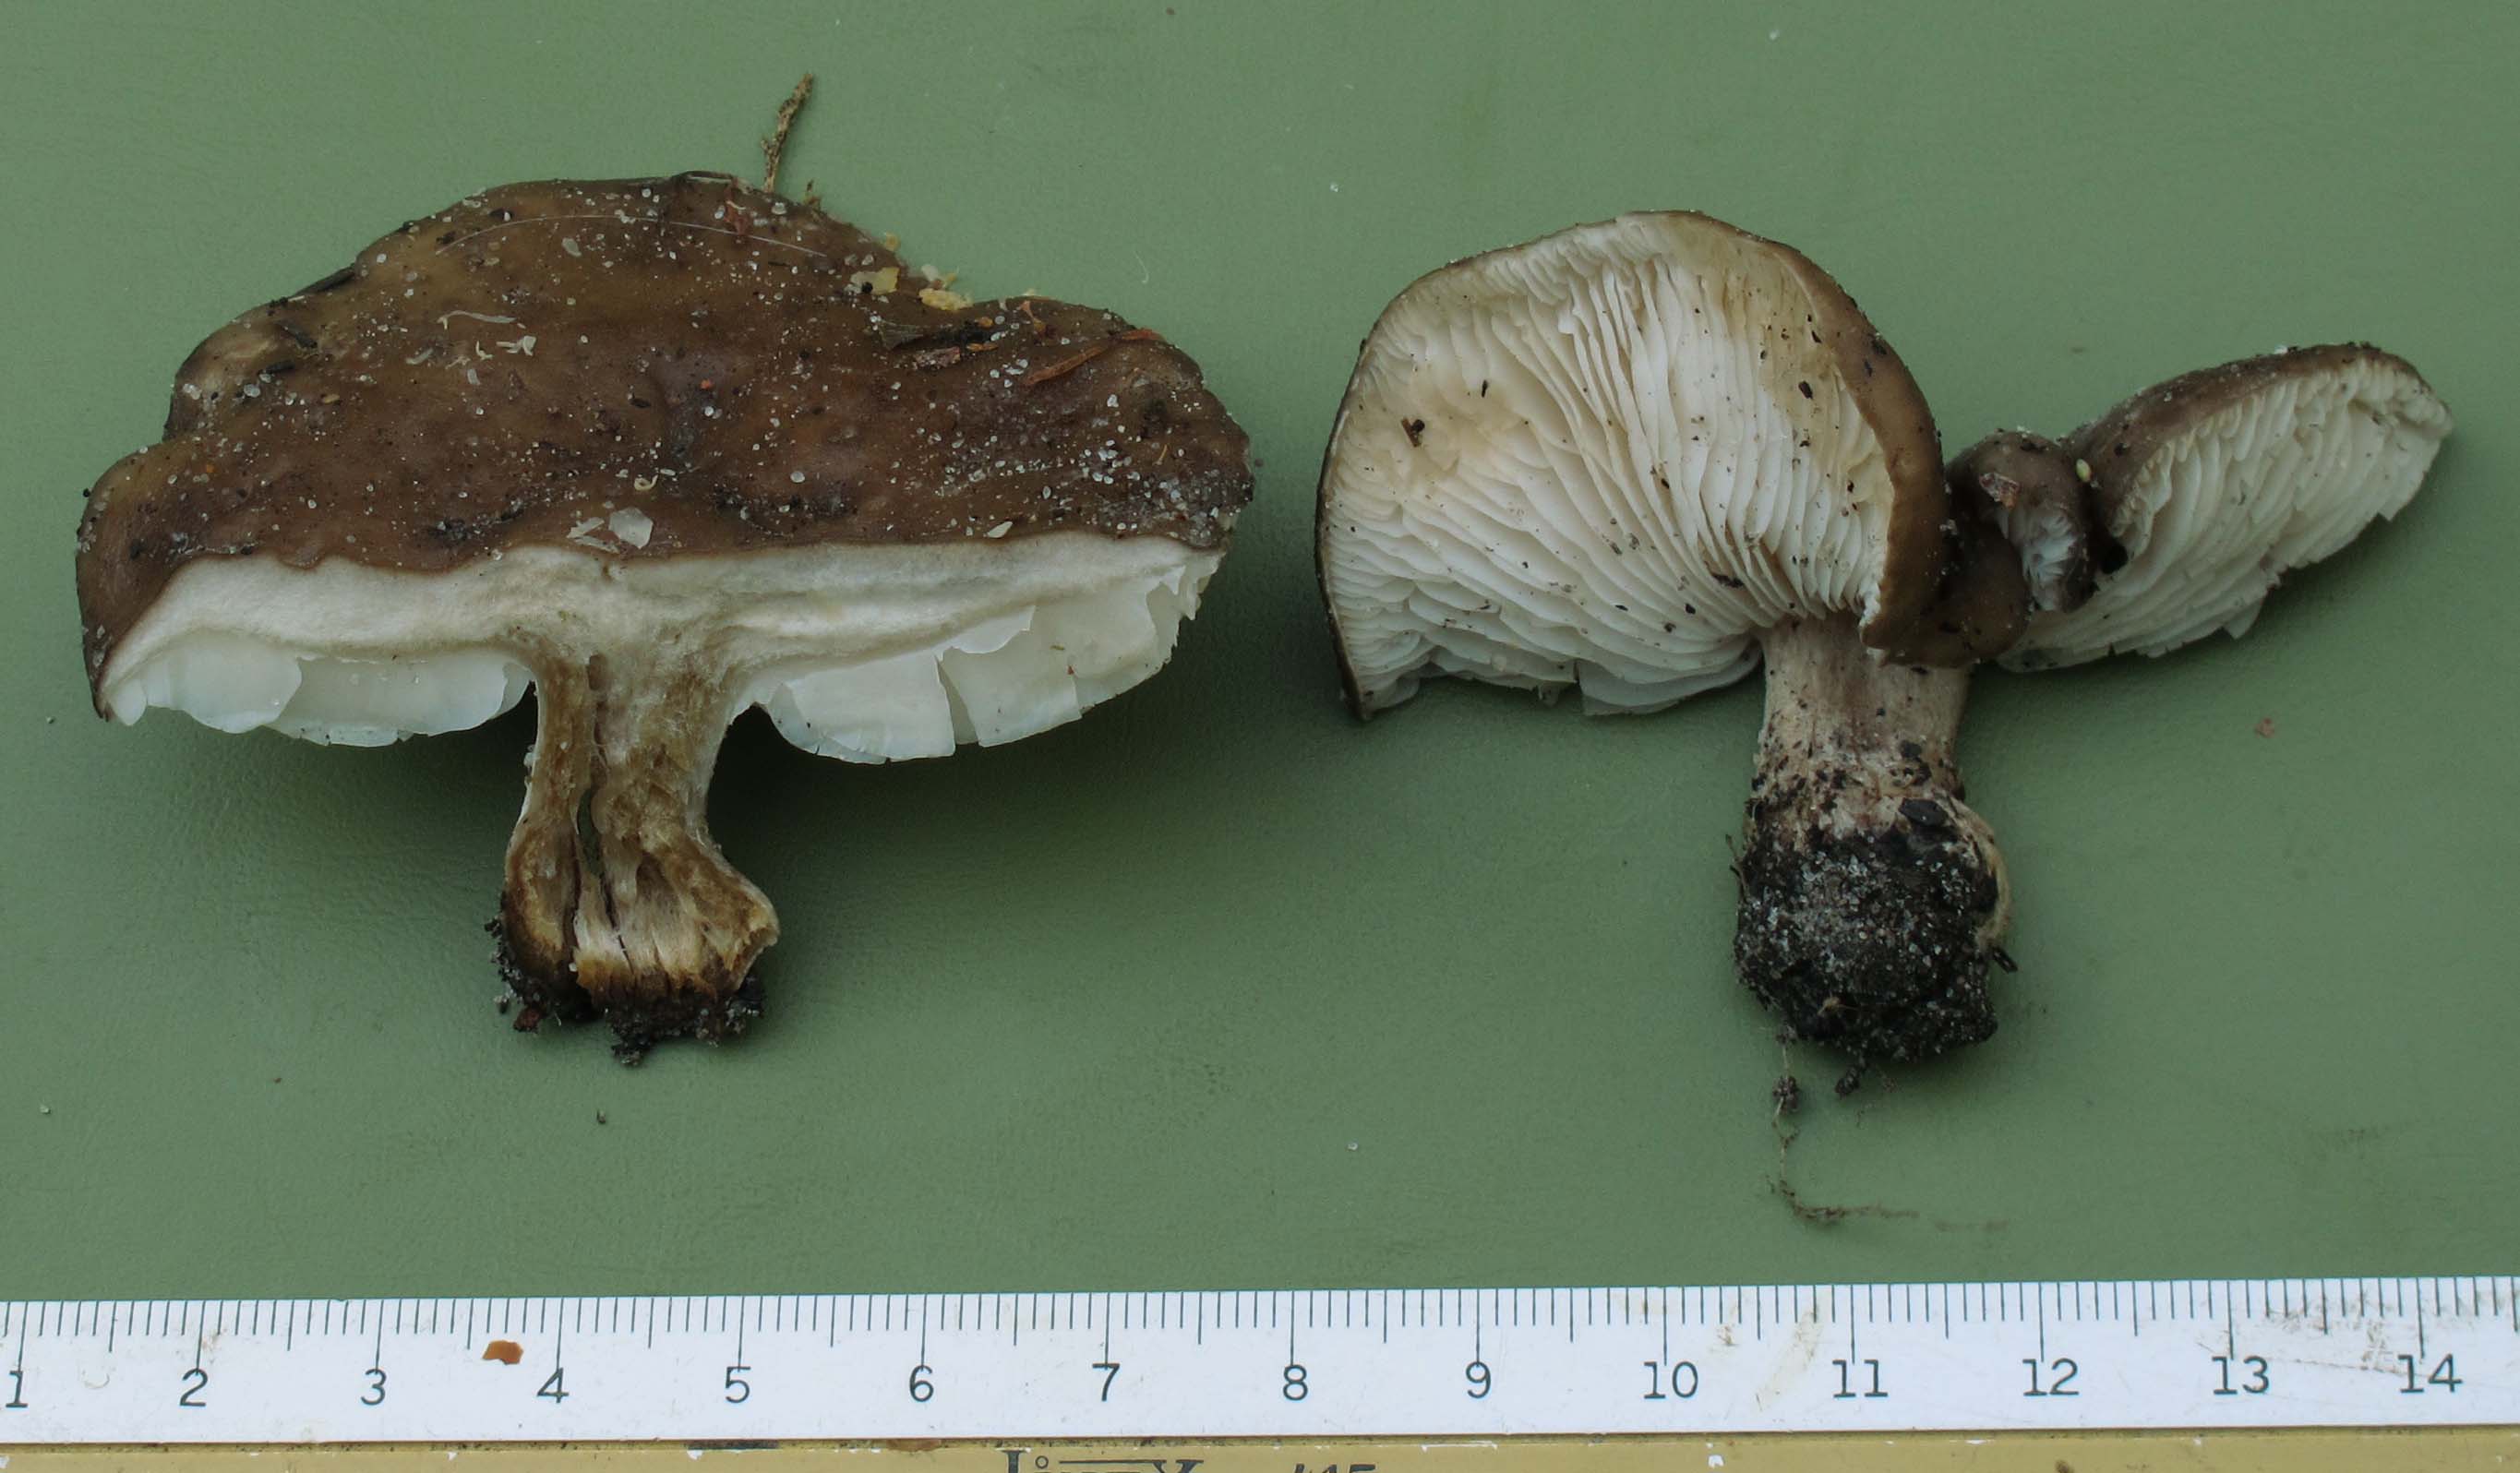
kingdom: Fungi
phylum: Basidiomycota
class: Agaricomycetes
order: Agaricales
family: Tricholomataceae
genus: Melanoleuca
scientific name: Melanoleuca
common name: munkehat
